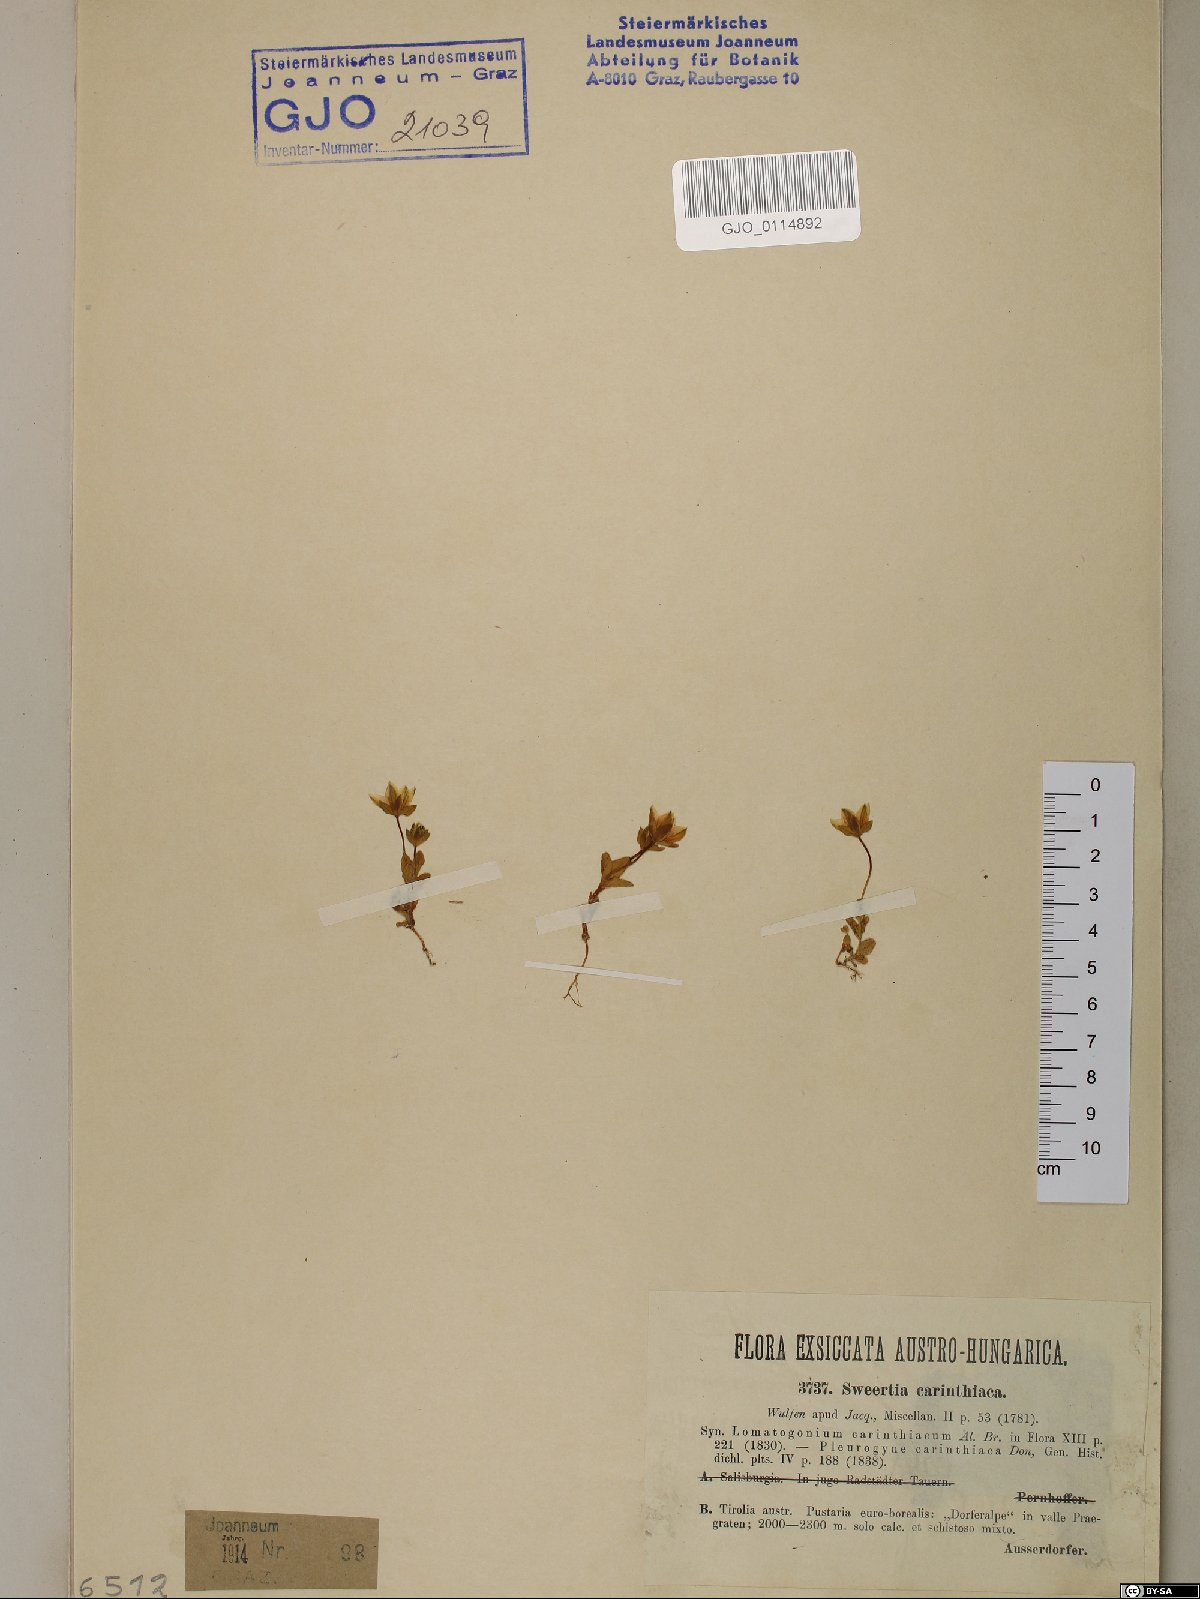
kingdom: Plantae
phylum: Tracheophyta
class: Magnoliopsida
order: Gentianales
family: Gentianaceae
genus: Lomatogonium
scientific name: Lomatogonium carinthiacum
